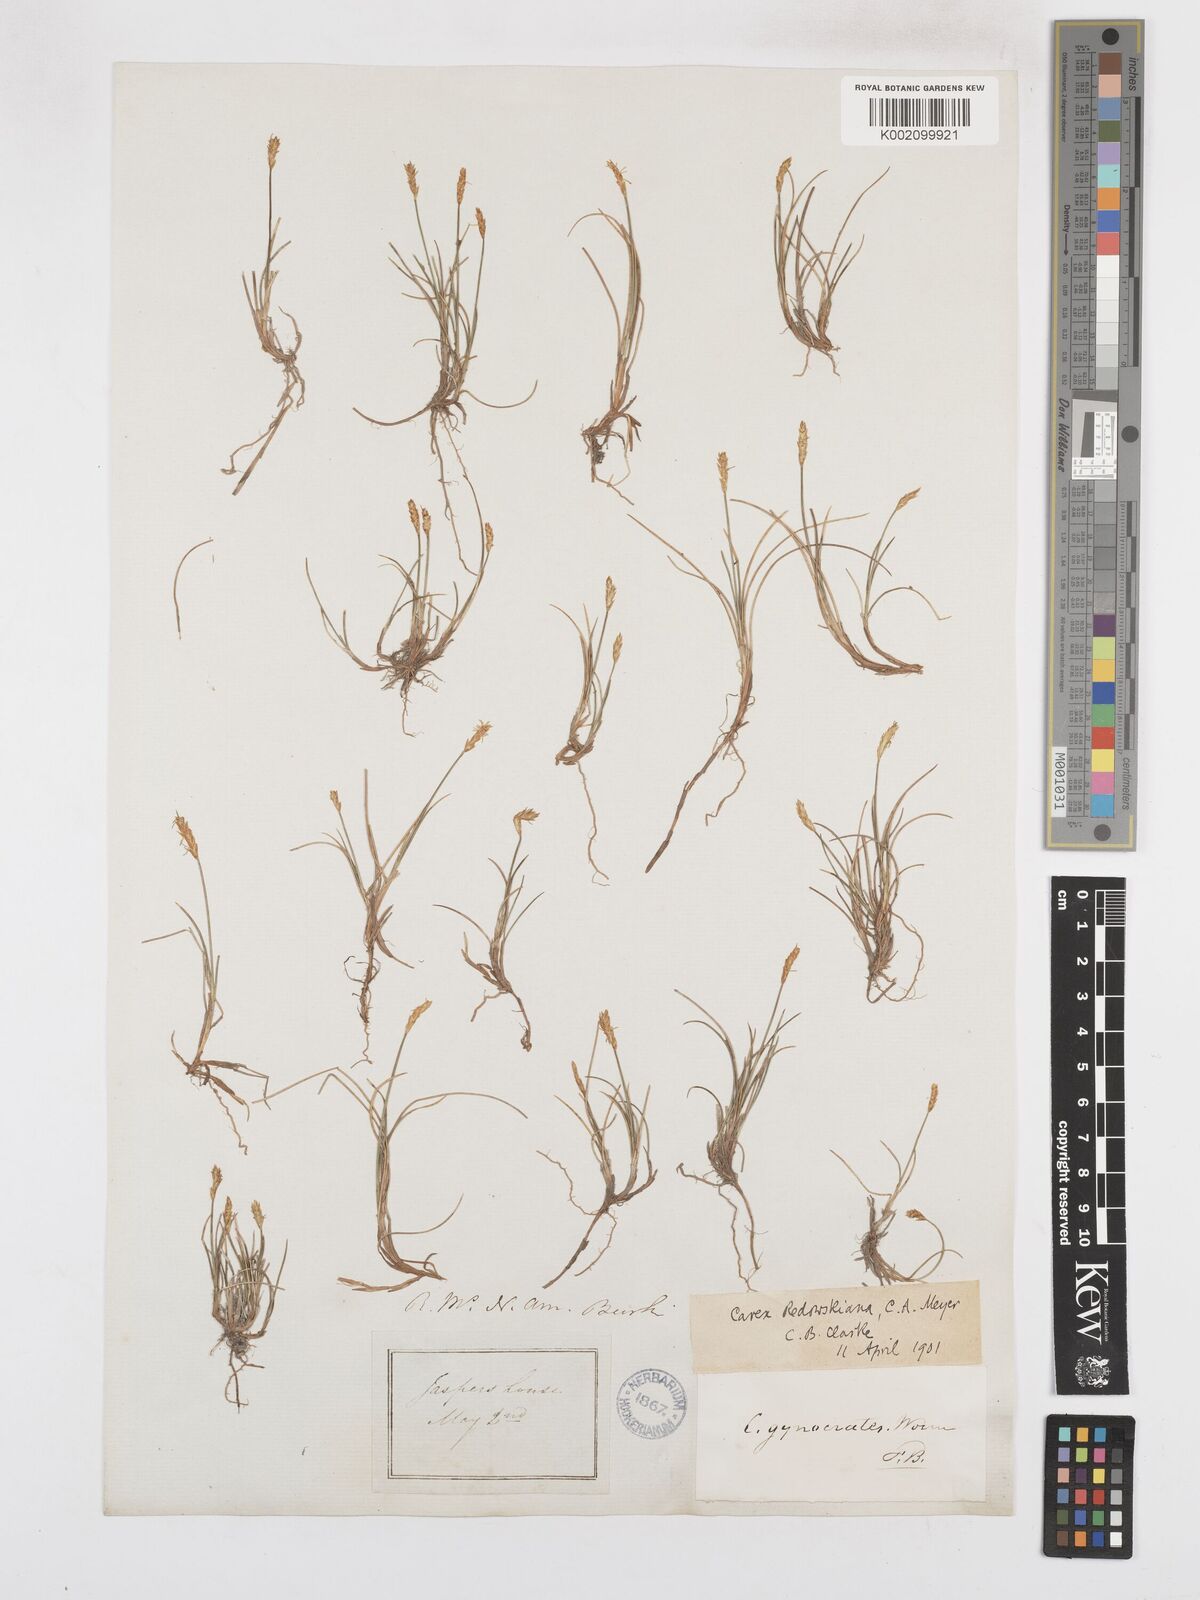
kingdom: Plantae
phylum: Tracheophyta
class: Liliopsida
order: Poales
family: Cyperaceae
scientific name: Cyperaceae
